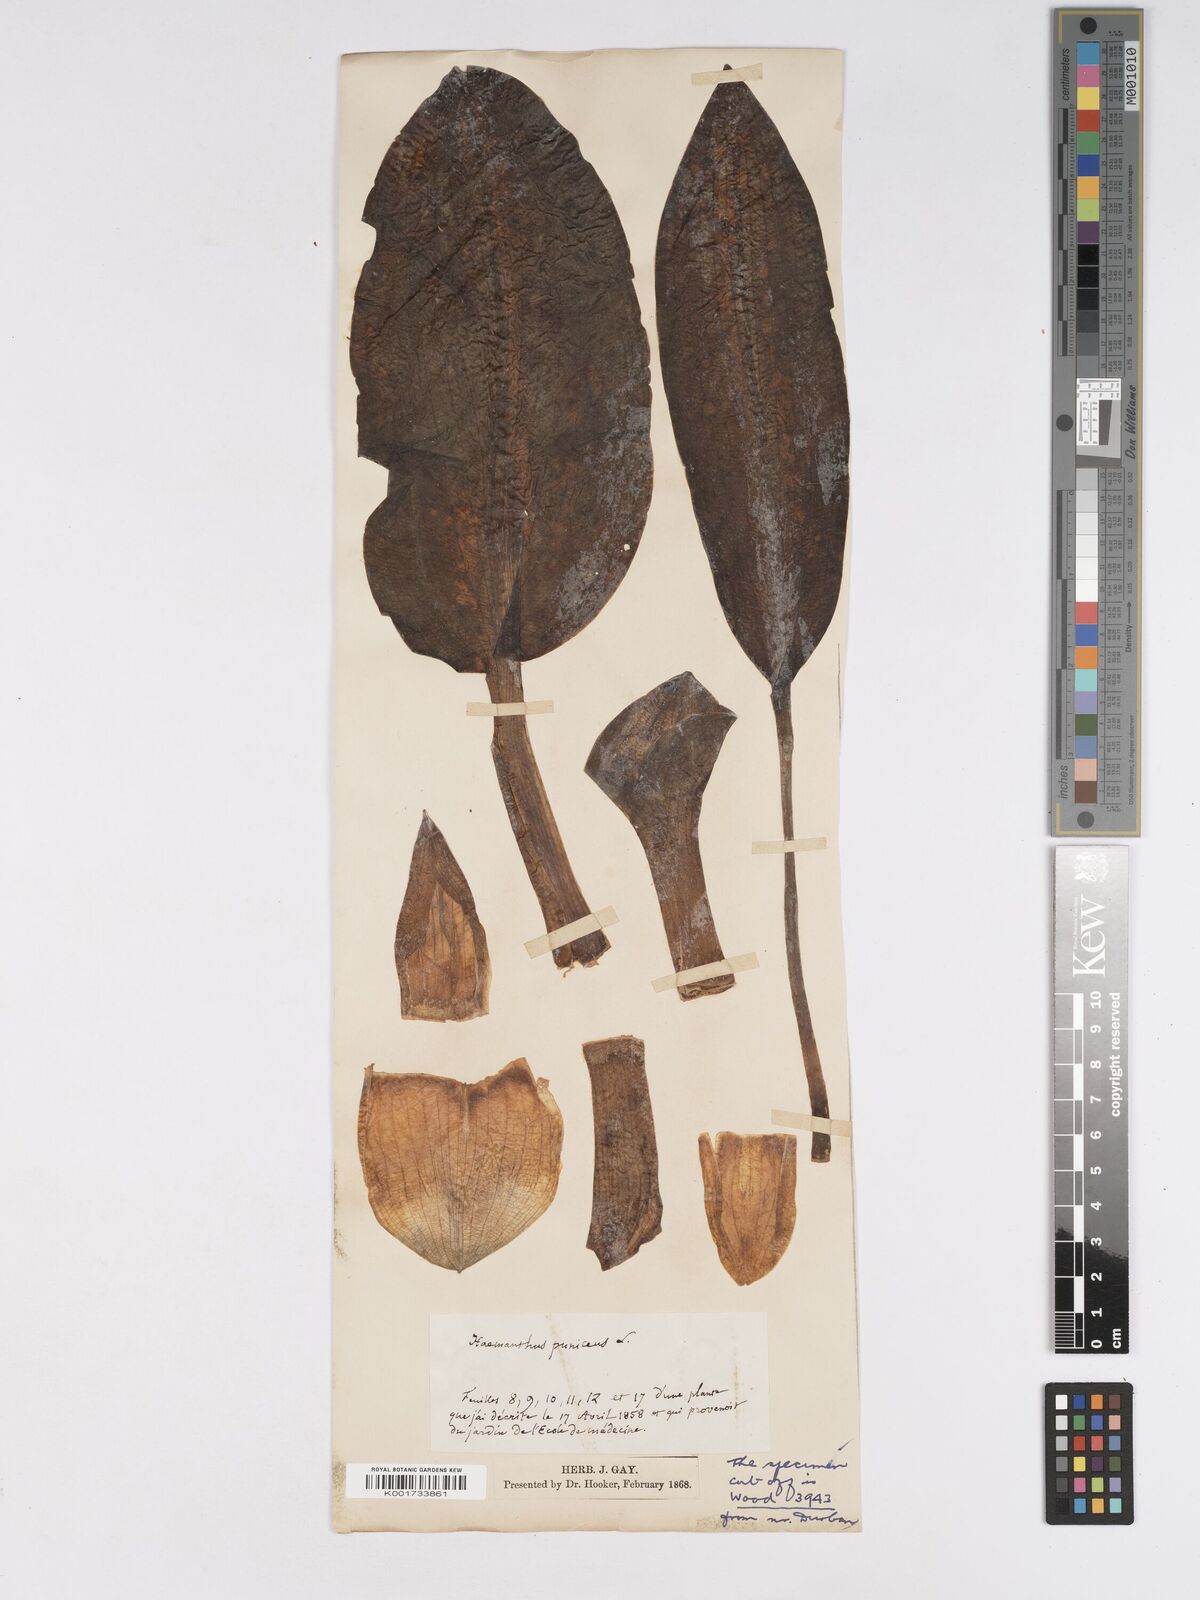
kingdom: Plantae
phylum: Tracheophyta
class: Liliopsida
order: Asparagales
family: Amaryllidaceae
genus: Scadoxus
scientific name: Scadoxus puniceus
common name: Royal-paintbrush
